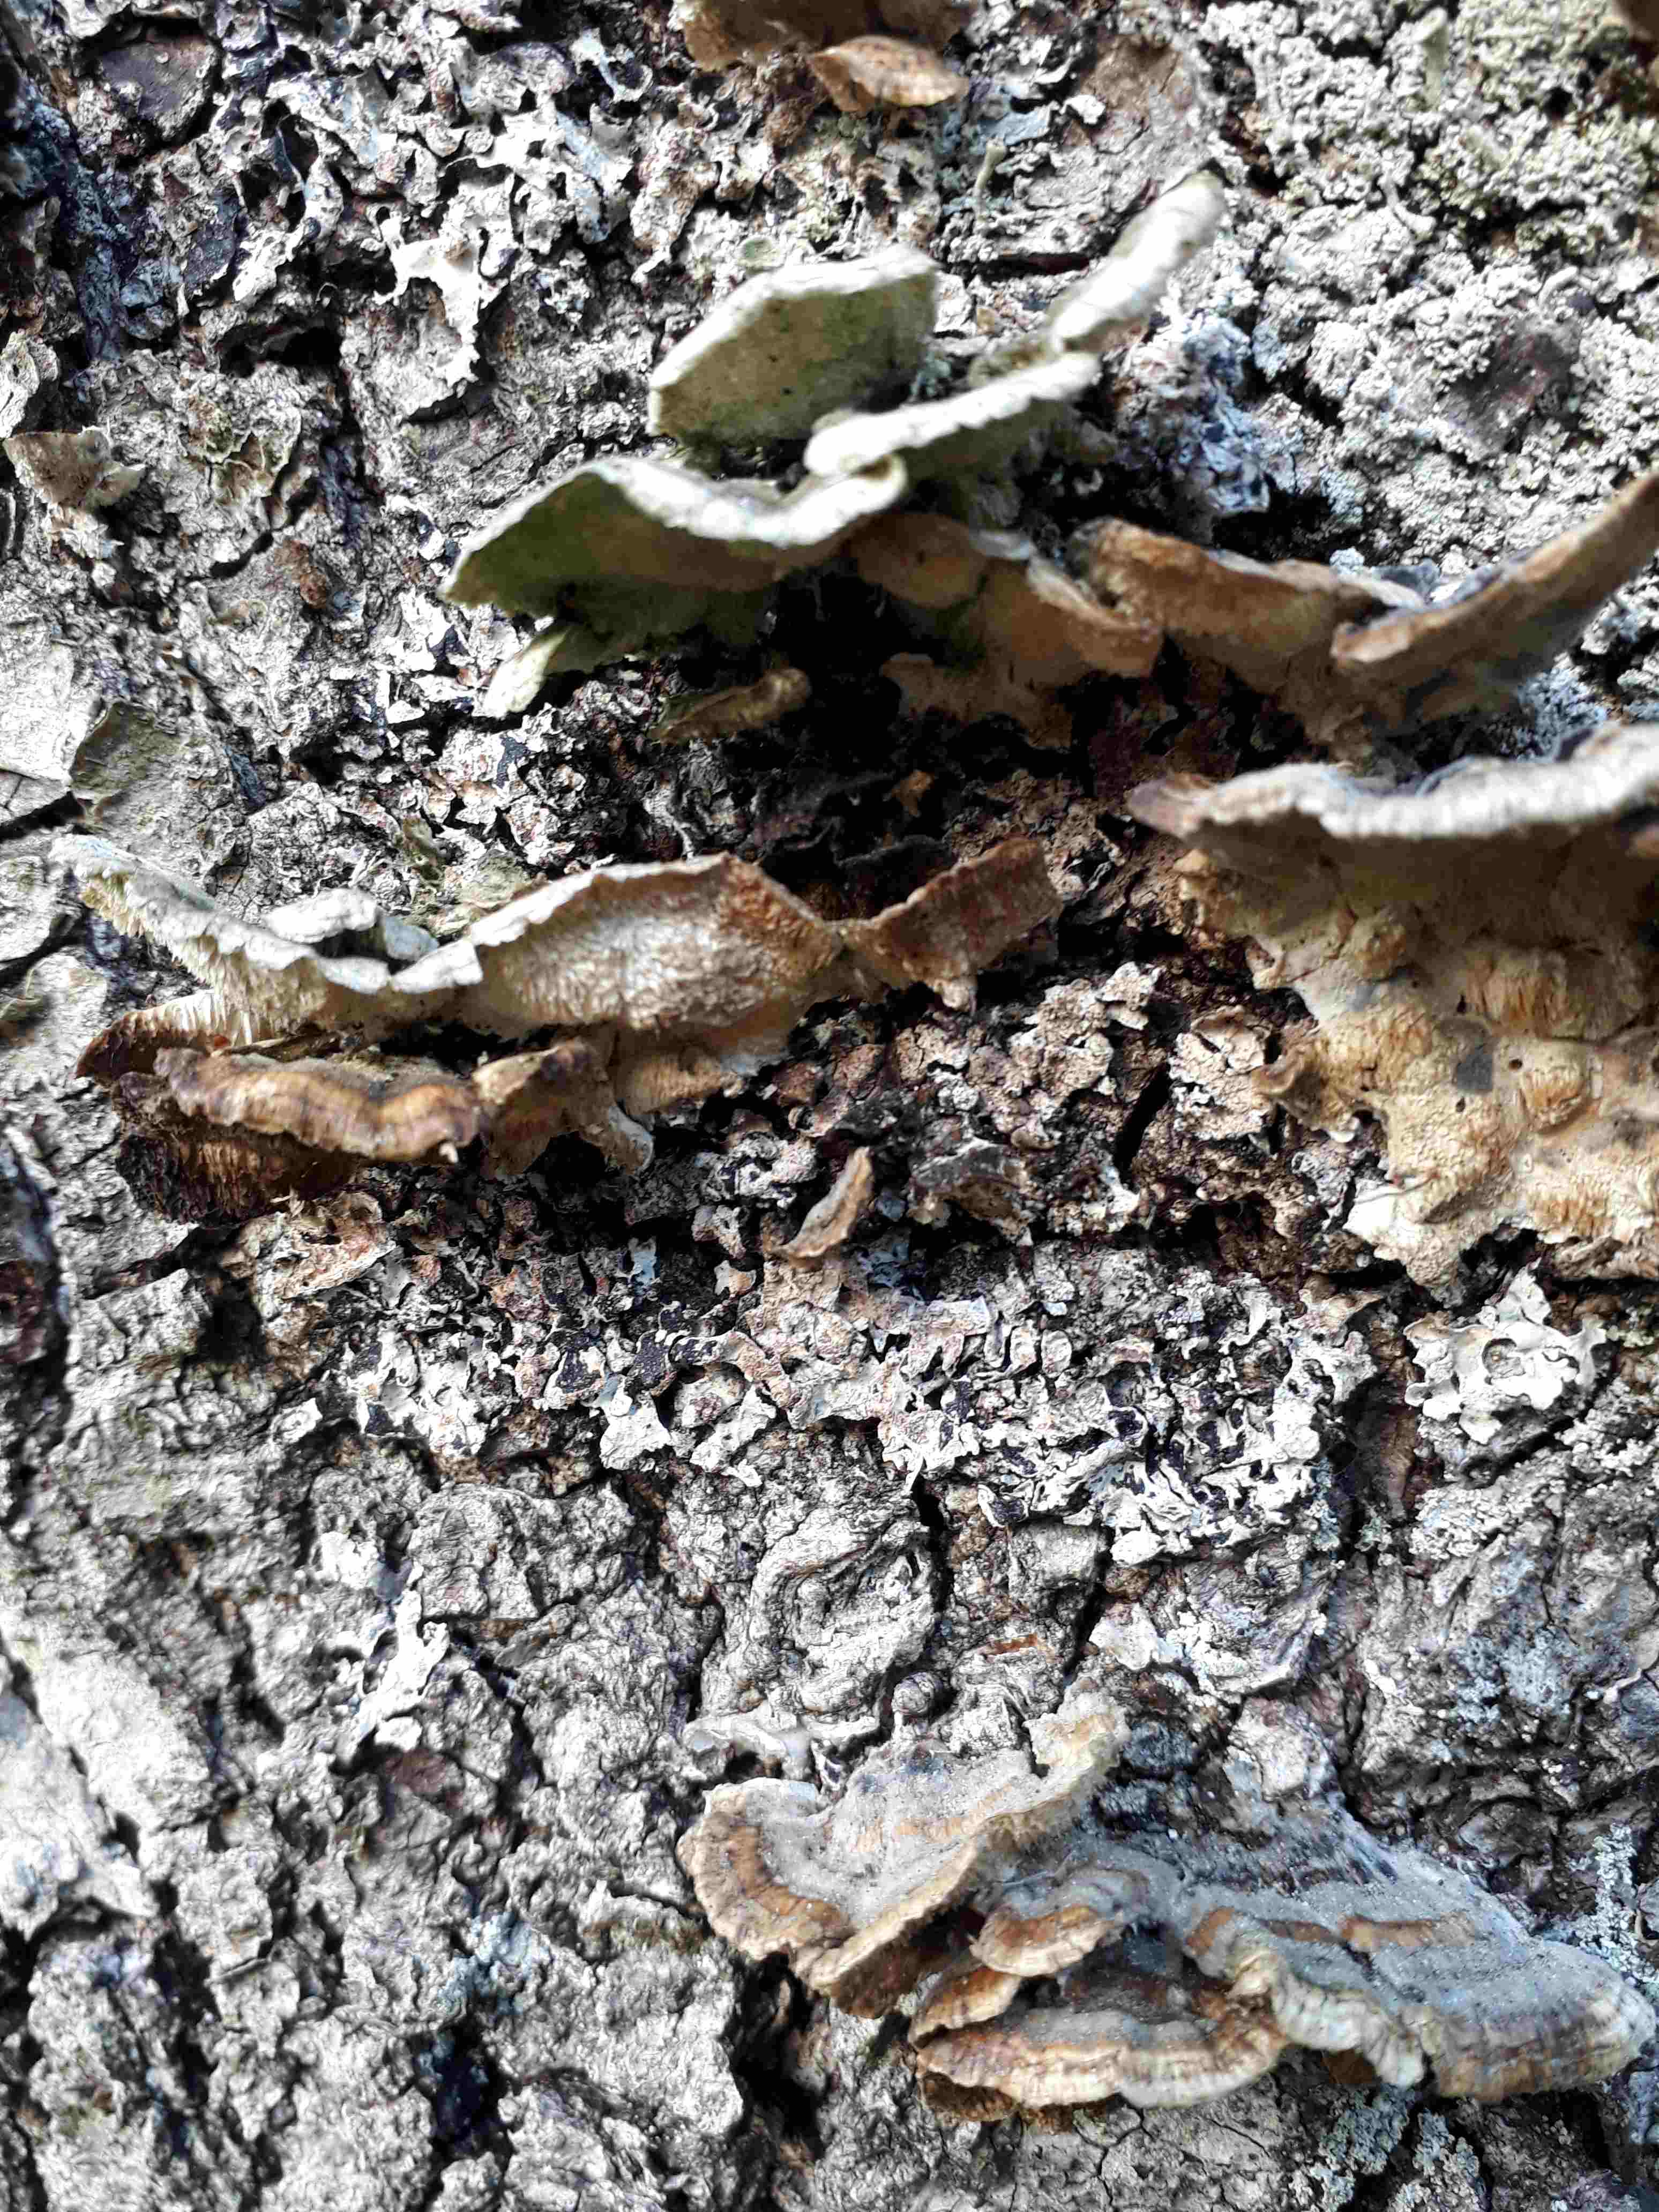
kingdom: Fungi
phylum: Basidiomycota
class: Agaricomycetes
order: Polyporales
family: Polyporaceae
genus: Trametes
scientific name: Trametes versicolor
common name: broget læderporesvamp
